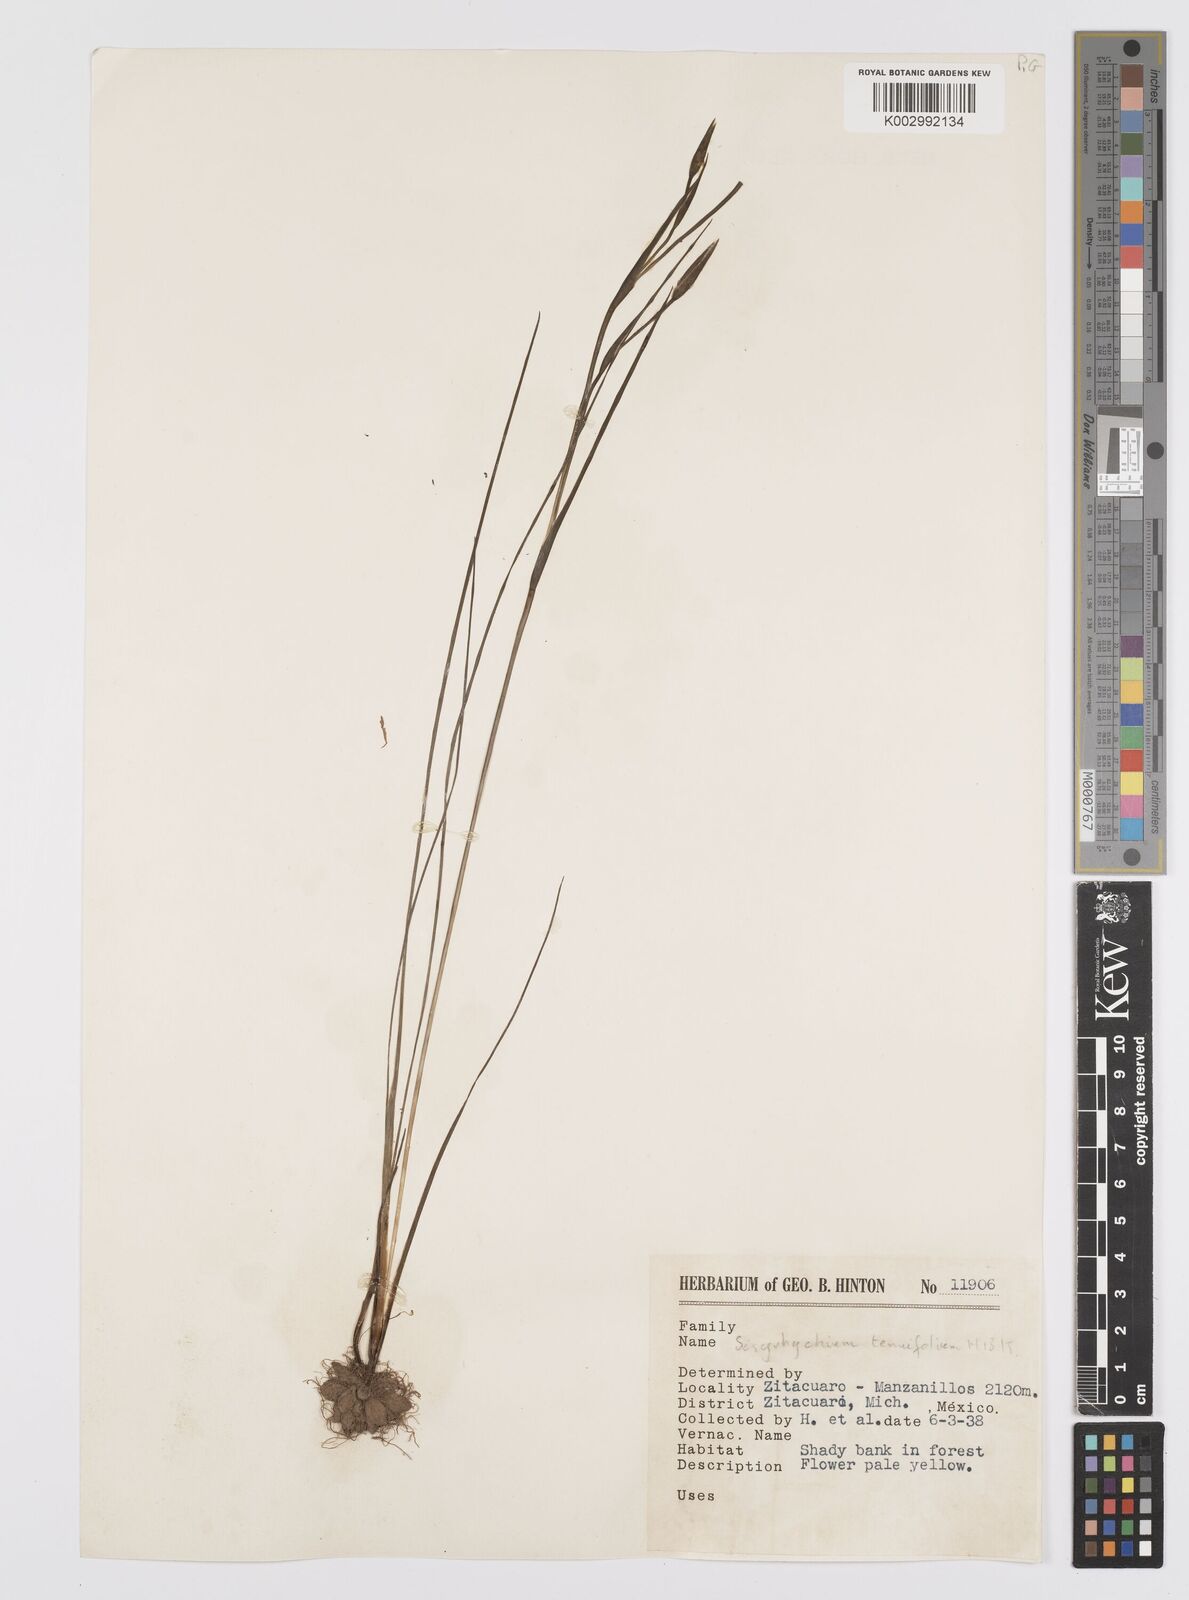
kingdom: Plantae
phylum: Tracheophyta
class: Liliopsida
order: Asparagales
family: Iridaceae
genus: Sisyrinchium
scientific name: Sisyrinchium langloisii
